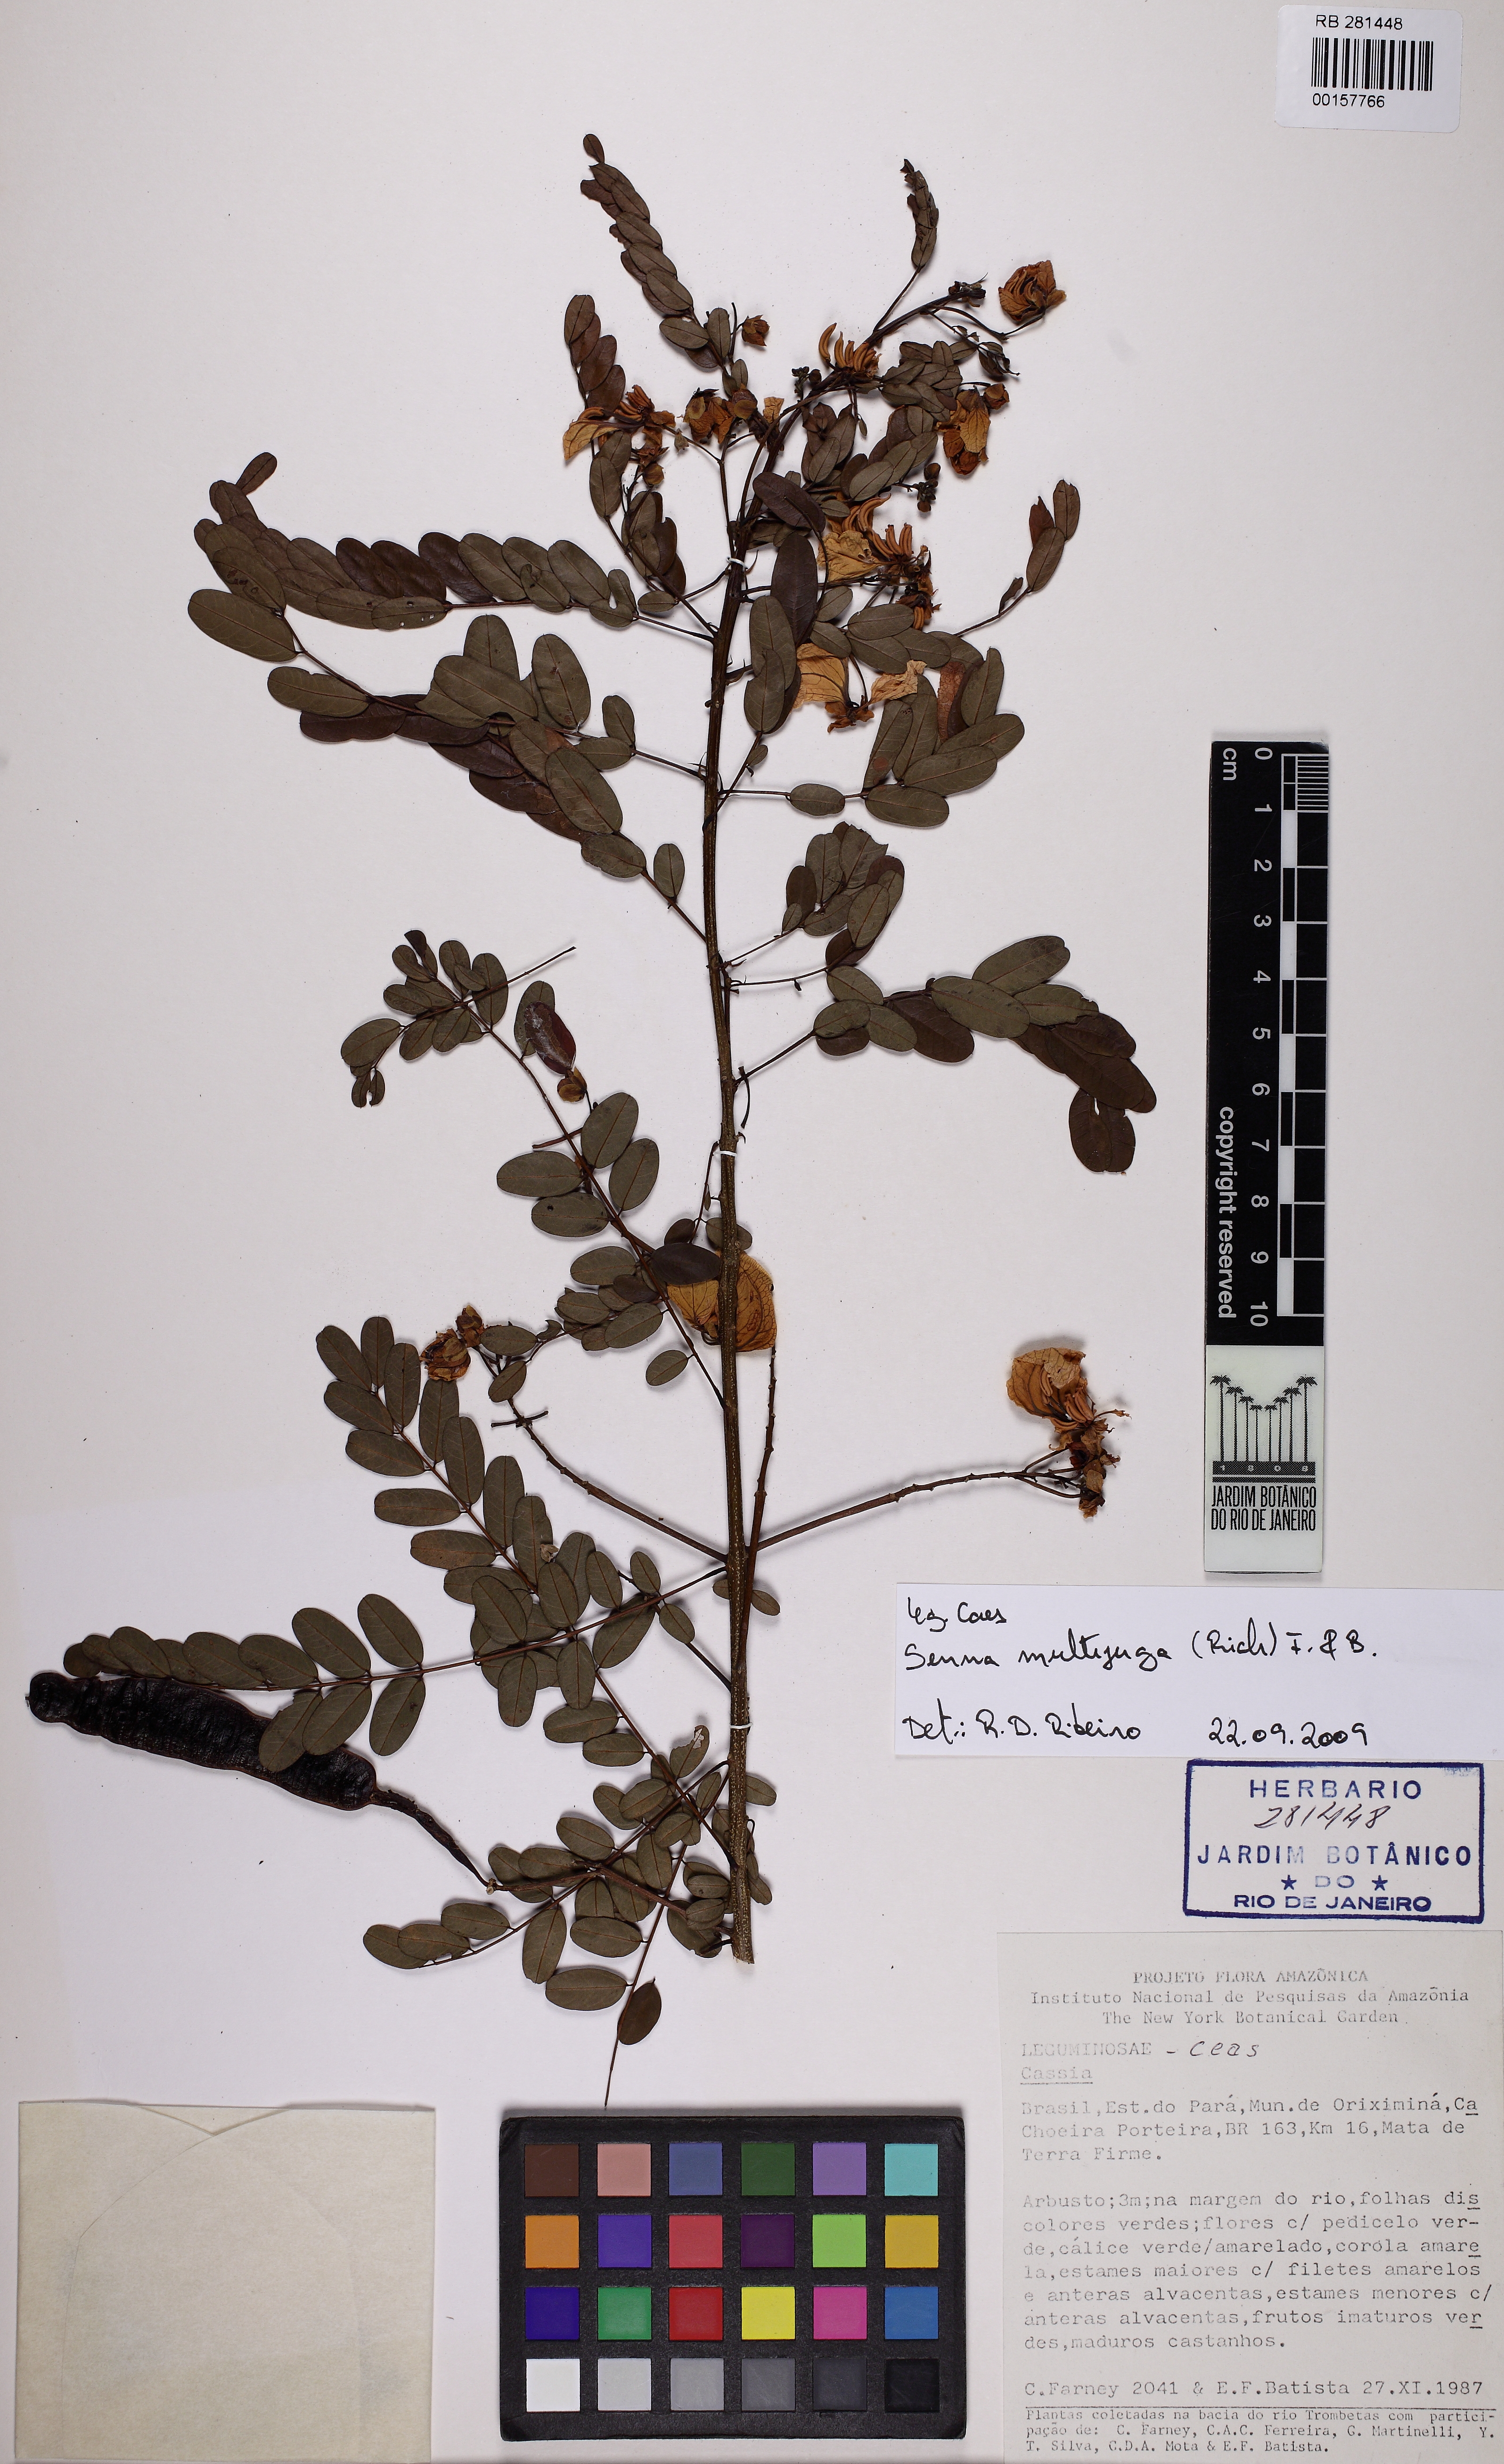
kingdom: Plantae
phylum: Tracheophyta
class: Magnoliopsida
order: Fabales
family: Fabaceae
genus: Senna
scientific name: Senna multijuga
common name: False sicklepod
